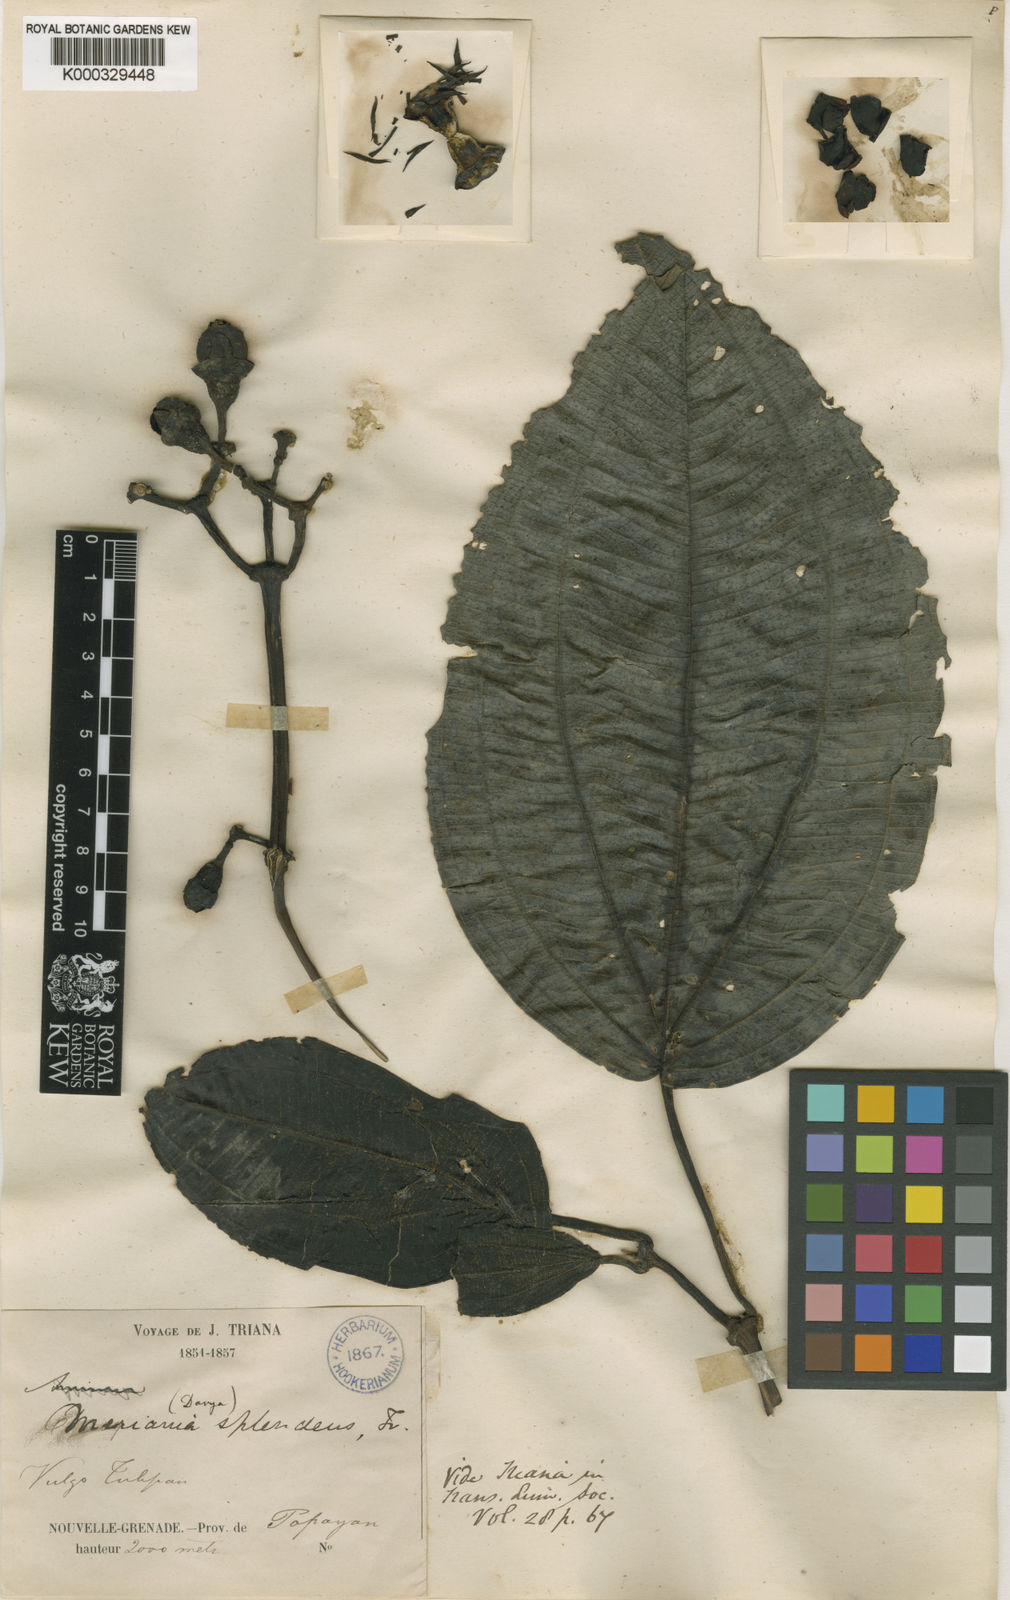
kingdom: Plantae
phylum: Tracheophyta
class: Magnoliopsida
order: Myrtales
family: Melastomataceae
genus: Meriania
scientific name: Meriania splendens
